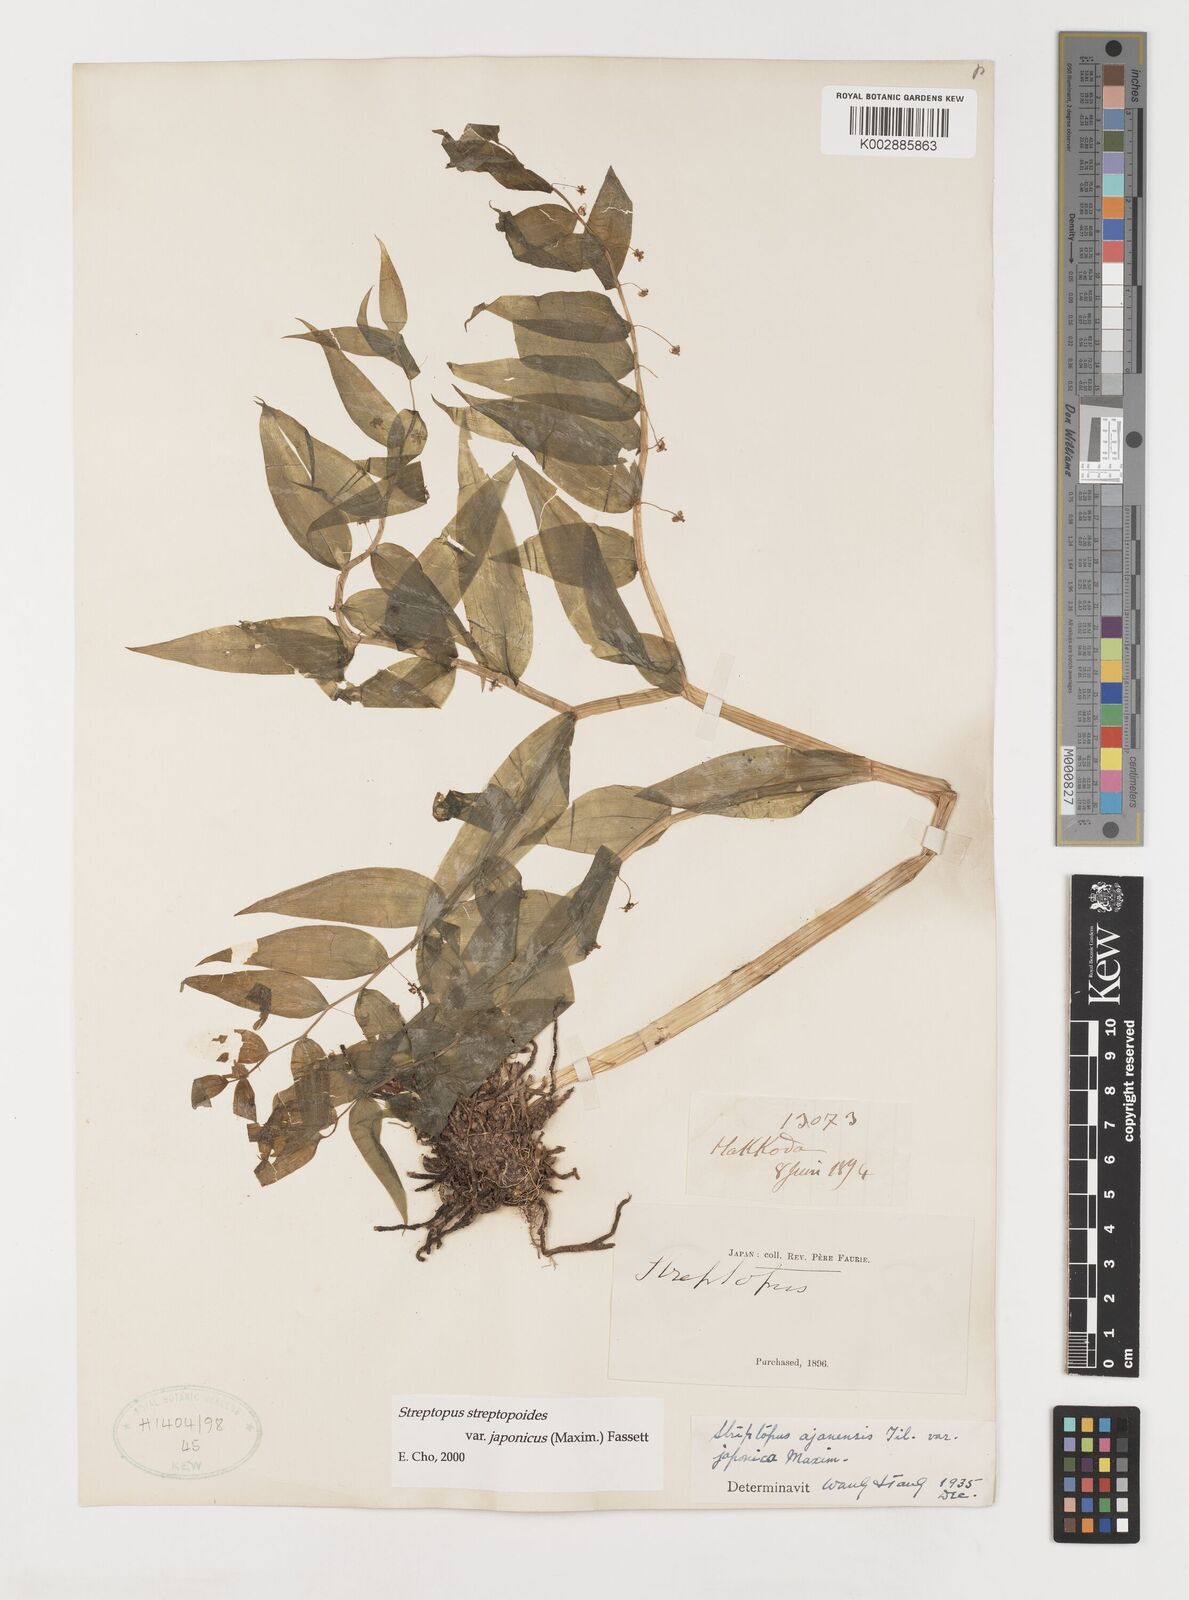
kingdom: Plantae
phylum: Tracheophyta
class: Liliopsida
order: Liliales
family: Liliaceae
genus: Streptopus
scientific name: Streptopus streptopoides
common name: Small twisted-stalk
